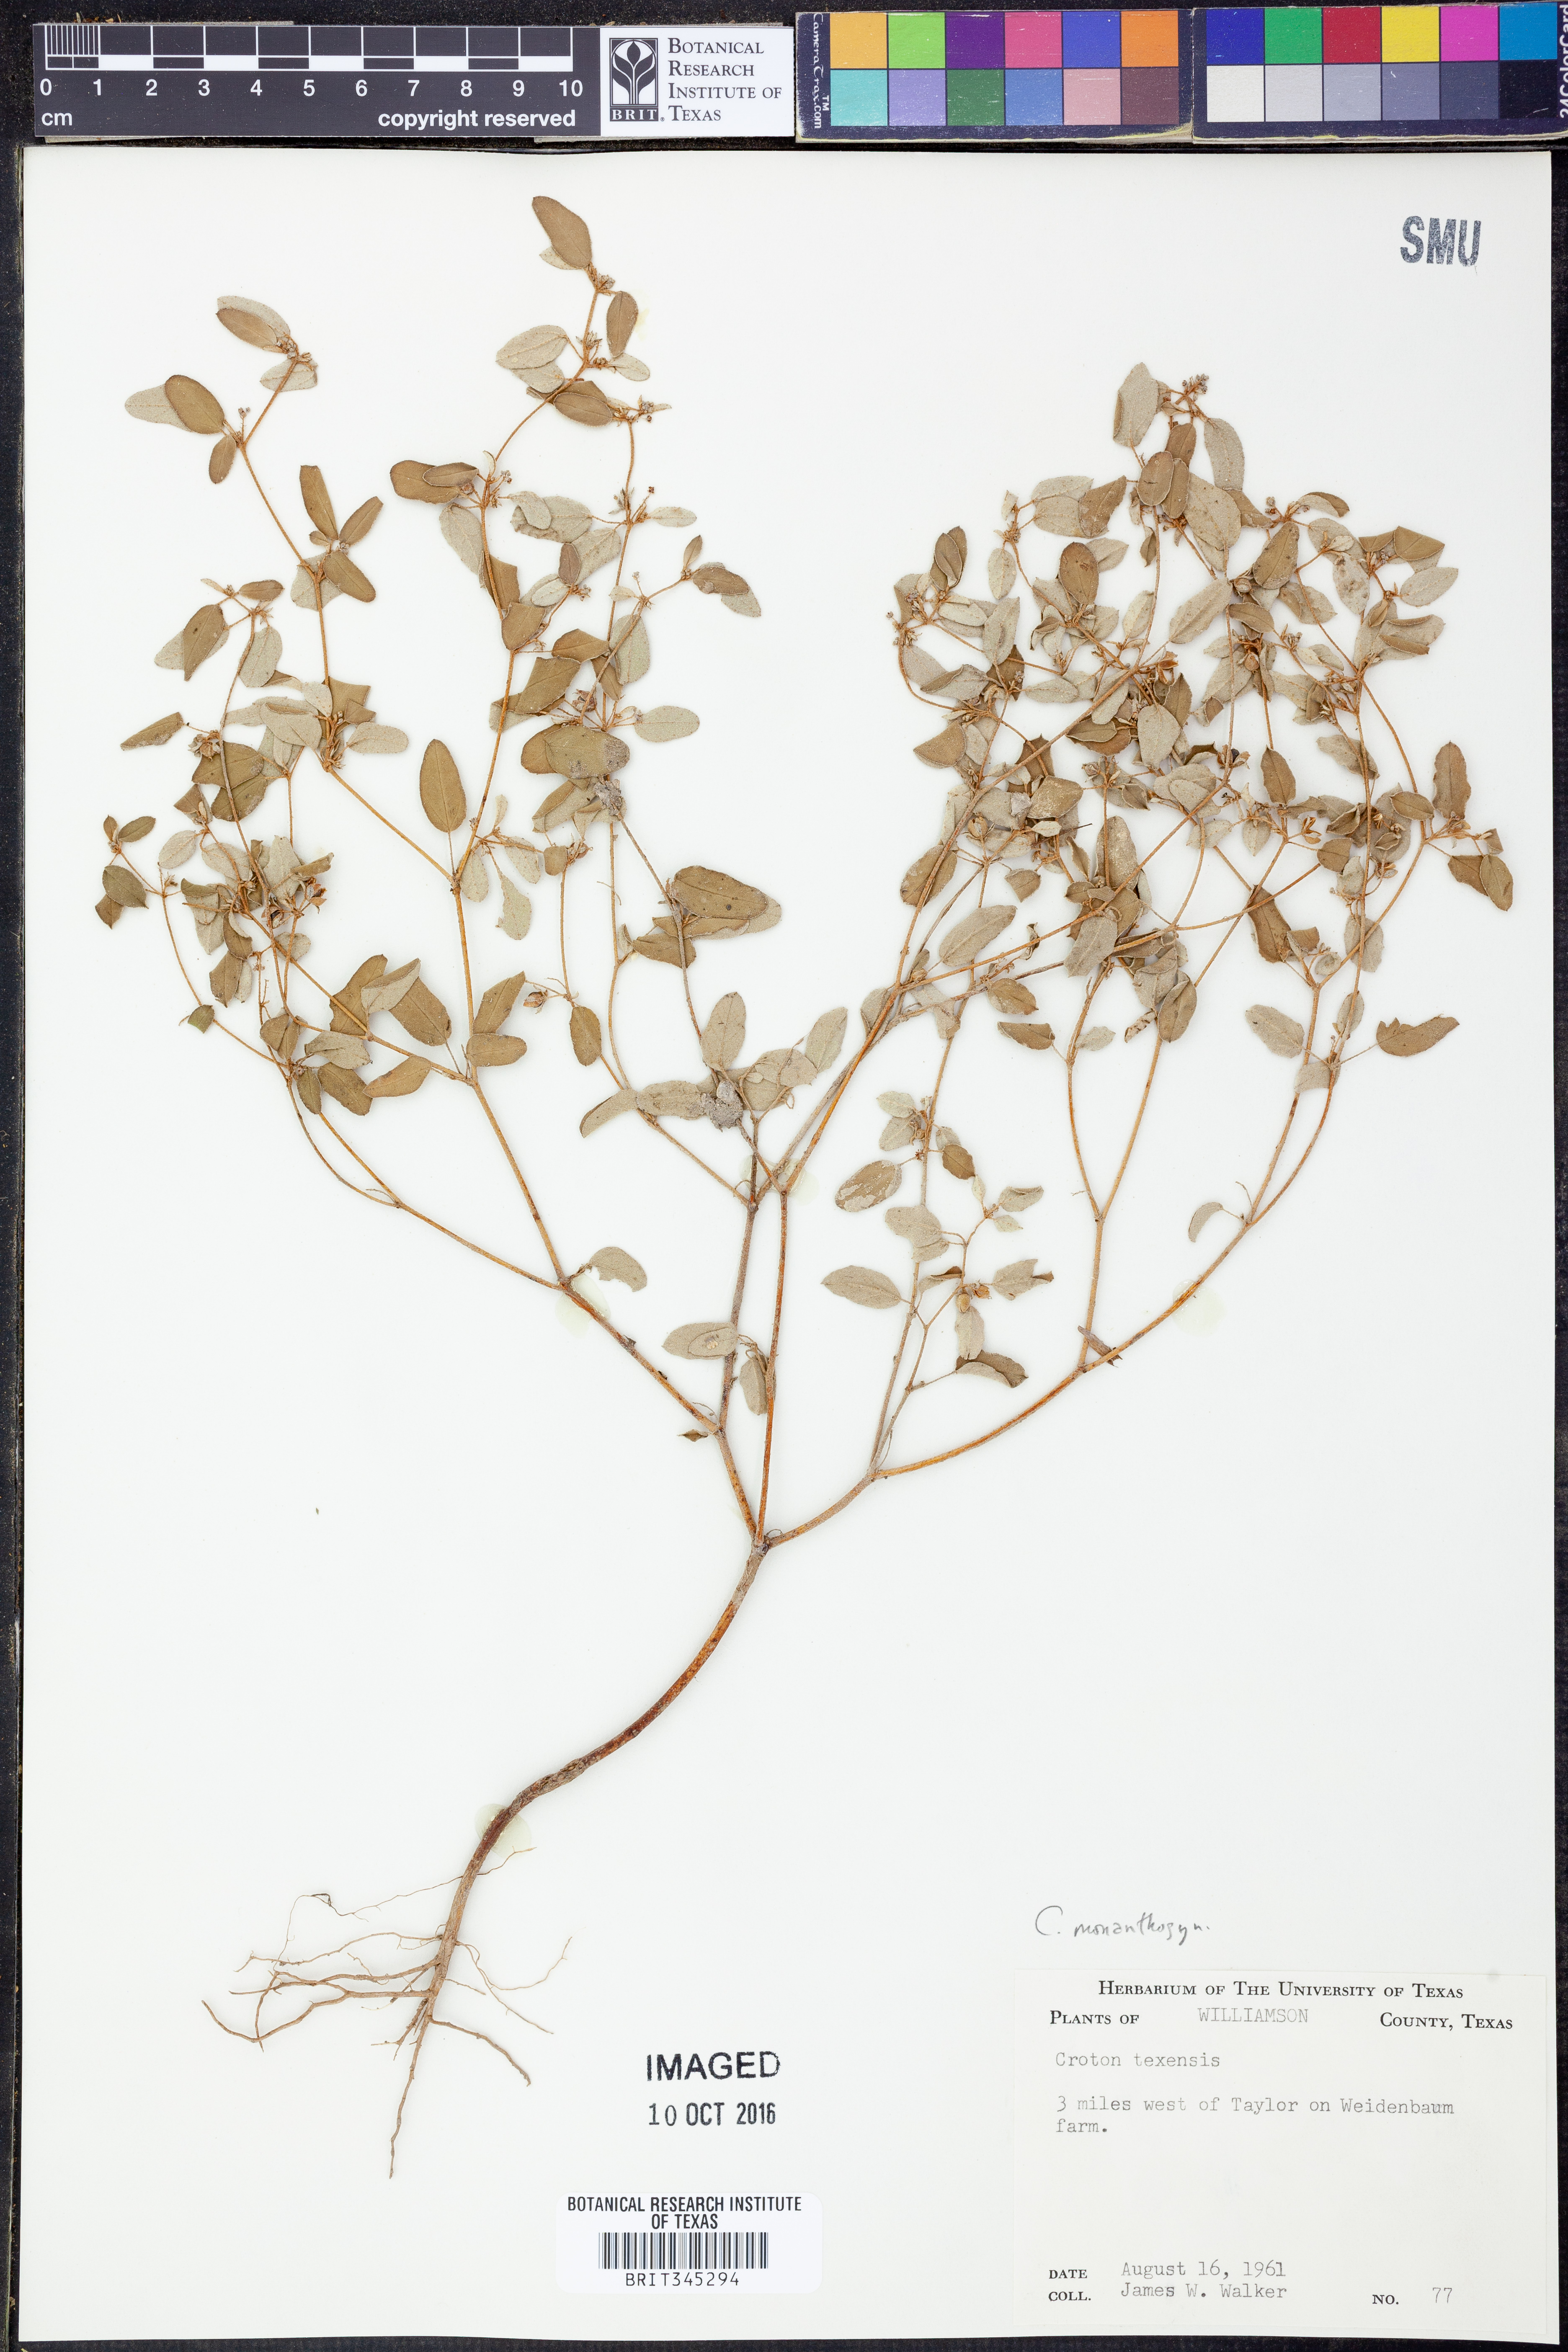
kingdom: Plantae
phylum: Tracheophyta
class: Magnoliopsida
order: Malpighiales
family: Euphorbiaceae
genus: Croton
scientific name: Croton monanthogynus
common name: One-seed croton
